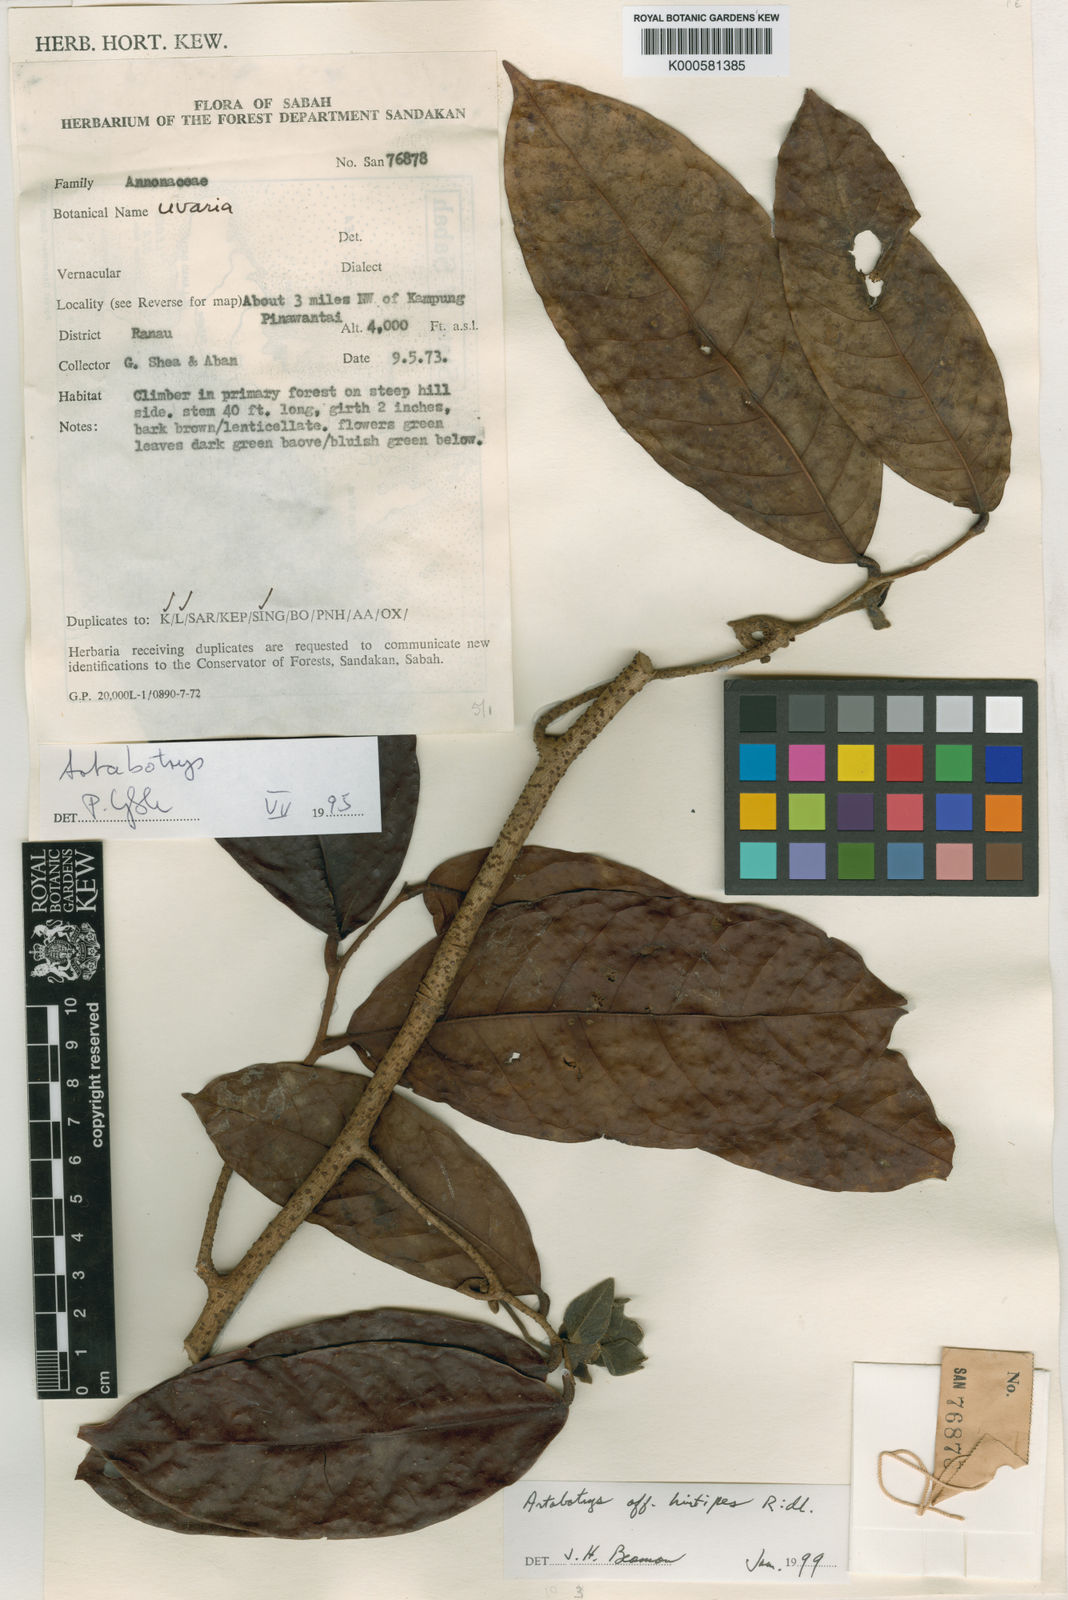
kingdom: Plantae
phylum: Tracheophyta
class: Magnoliopsida
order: Magnoliales
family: Annonaceae
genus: Artabotrys
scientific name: Artabotrys macropodus
